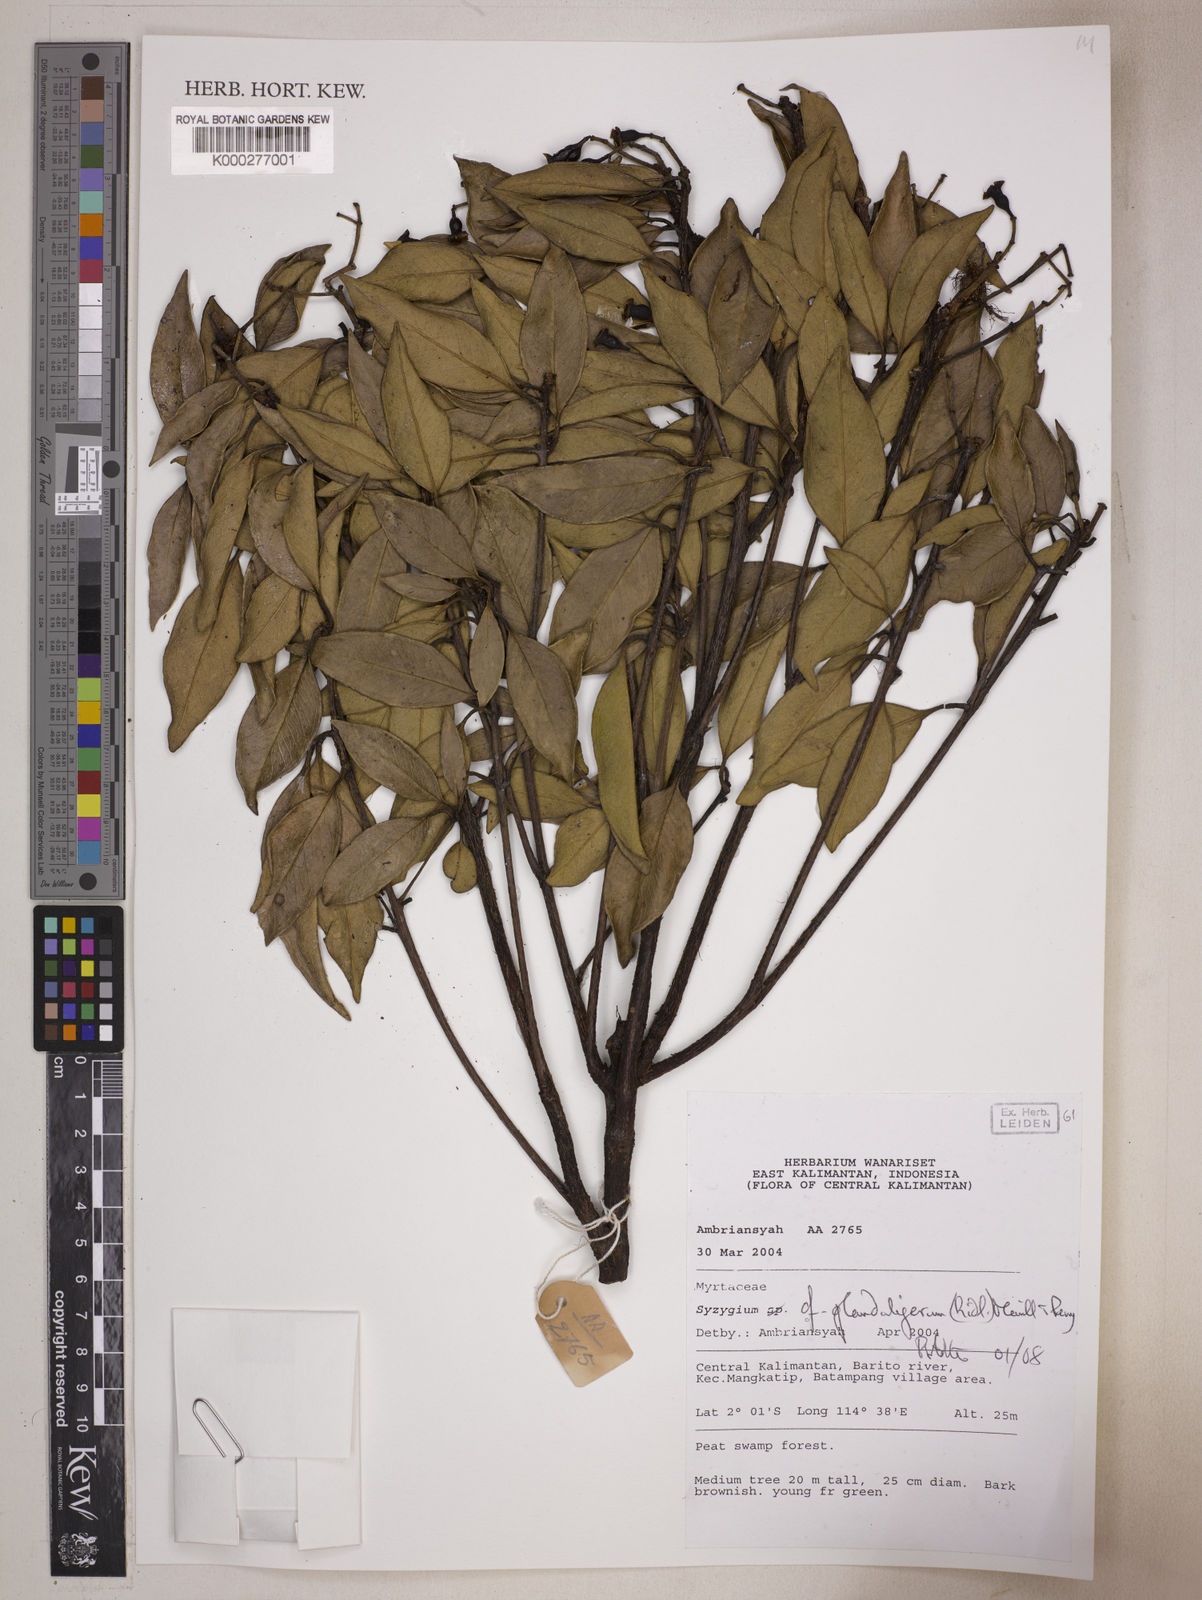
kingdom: Plantae
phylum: Tracheophyta
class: Magnoliopsida
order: Myrtales
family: Myrtaceae
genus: Syzygium
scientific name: Syzygium glanduligerum
